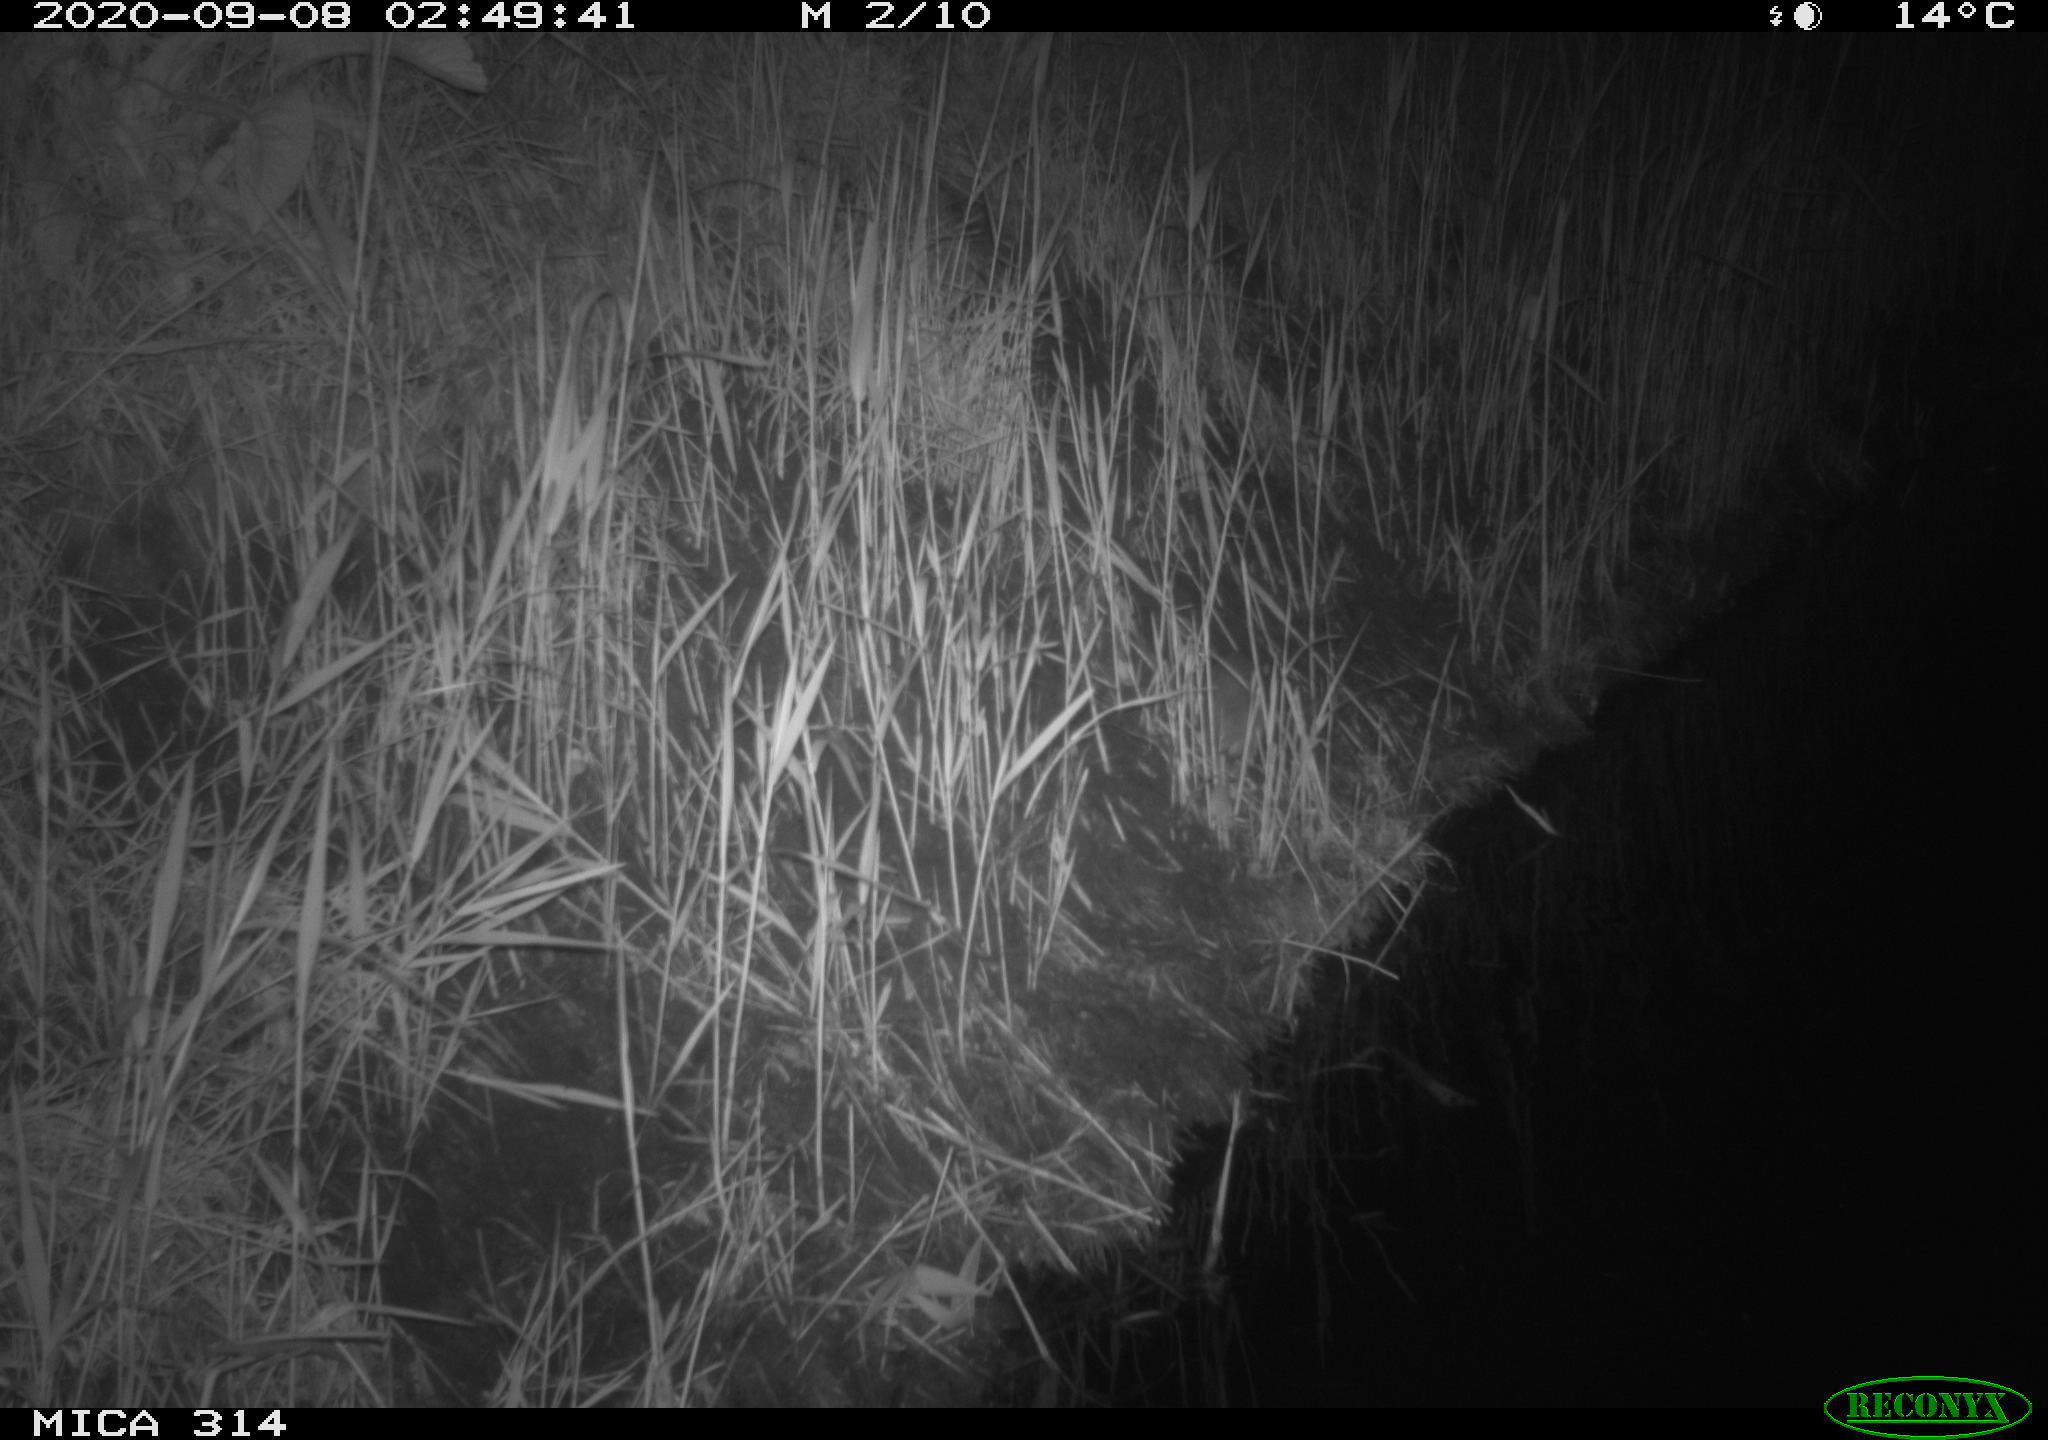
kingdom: Animalia
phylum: Chordata
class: Mammalia
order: Rodentia
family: Muridae
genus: Rattus
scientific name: Rattus norvegicus
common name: Brown rat
